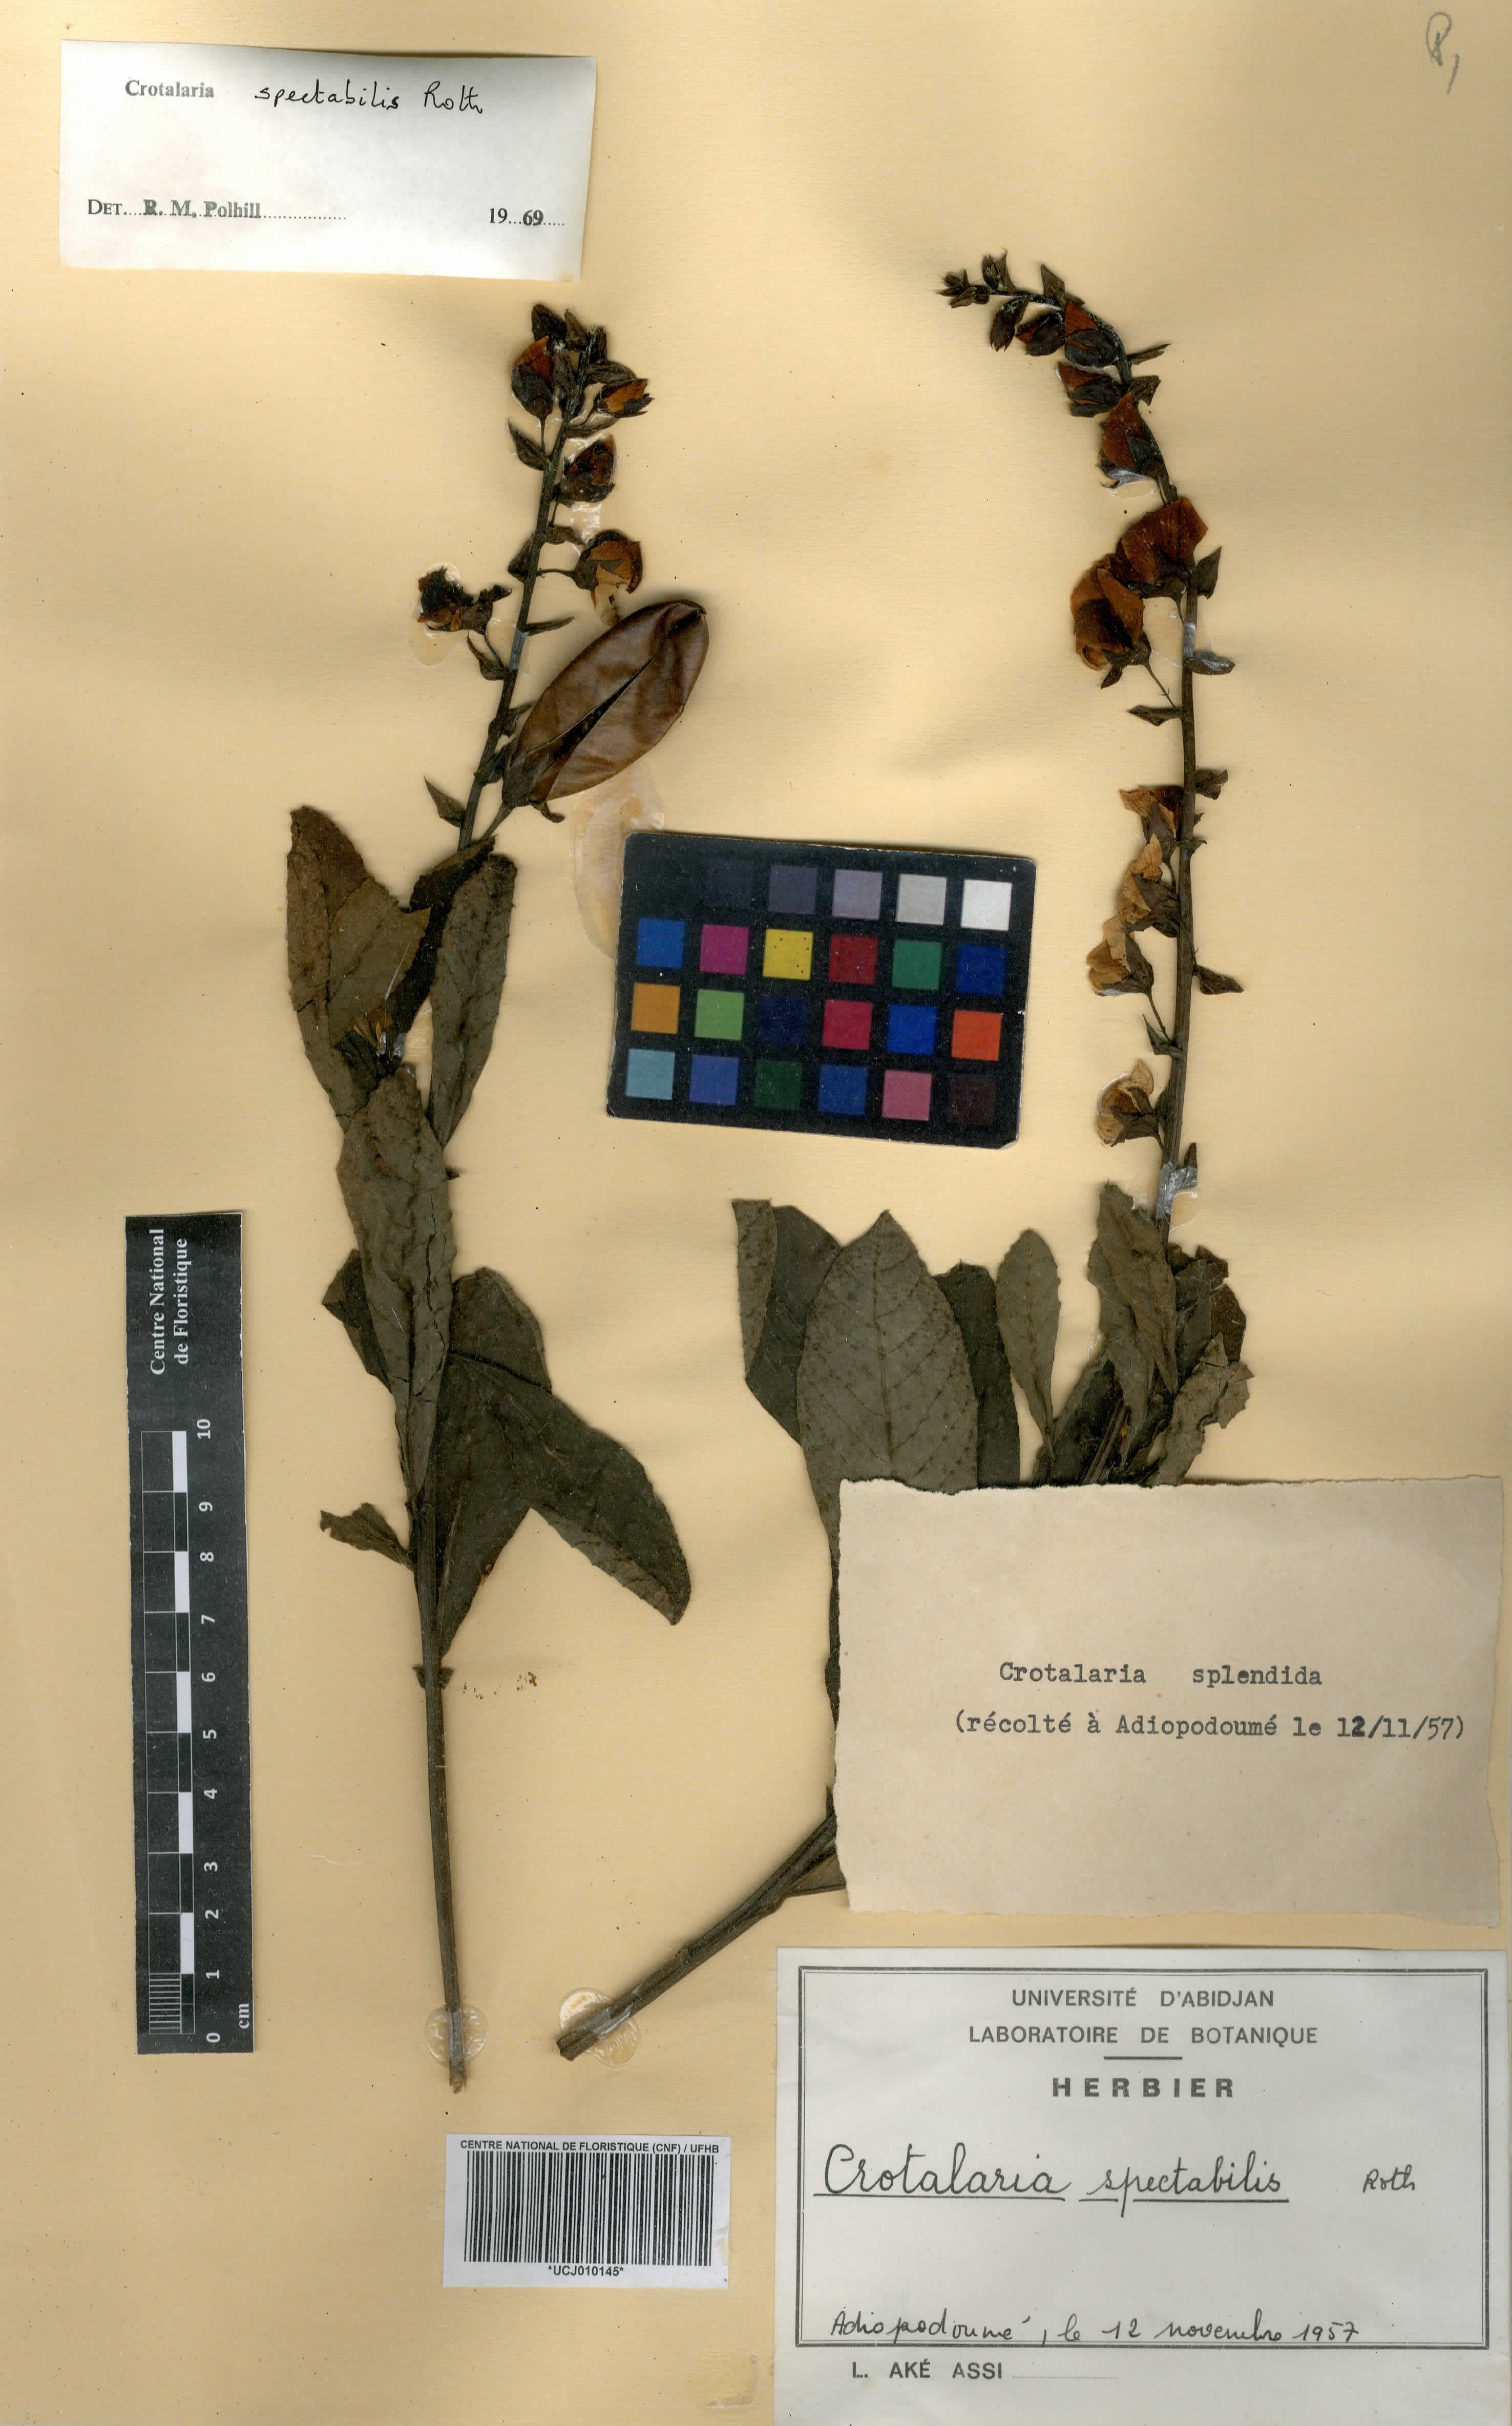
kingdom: Plantae
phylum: Tracheophyta
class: Magnoliopsida
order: Fabales
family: Fabaceae
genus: Crotalaria
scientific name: Crotalaria spectabilis
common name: Showy rattlebox
